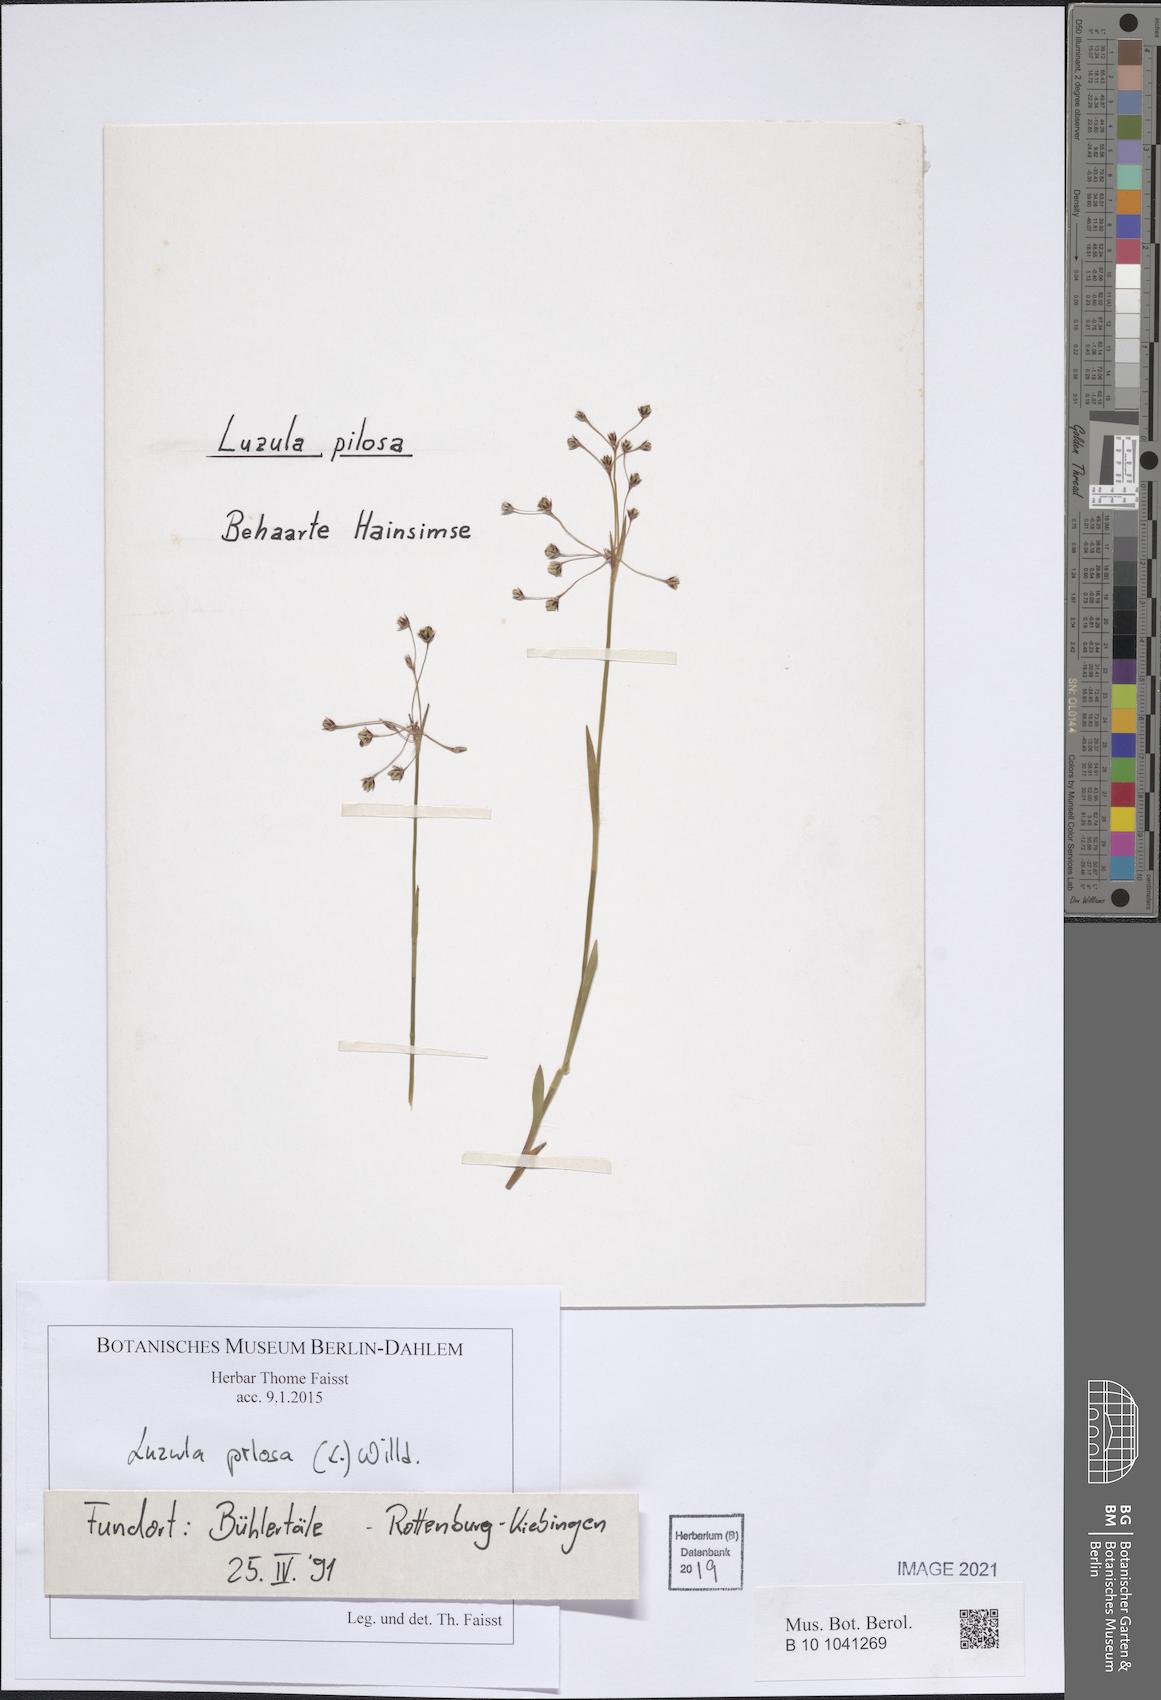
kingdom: Plantae
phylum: Tracheophyta
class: Liliopsida
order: Poales
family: Juncaceae
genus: Luzula
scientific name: Luzula pilosa
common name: Hairy wood-rush
